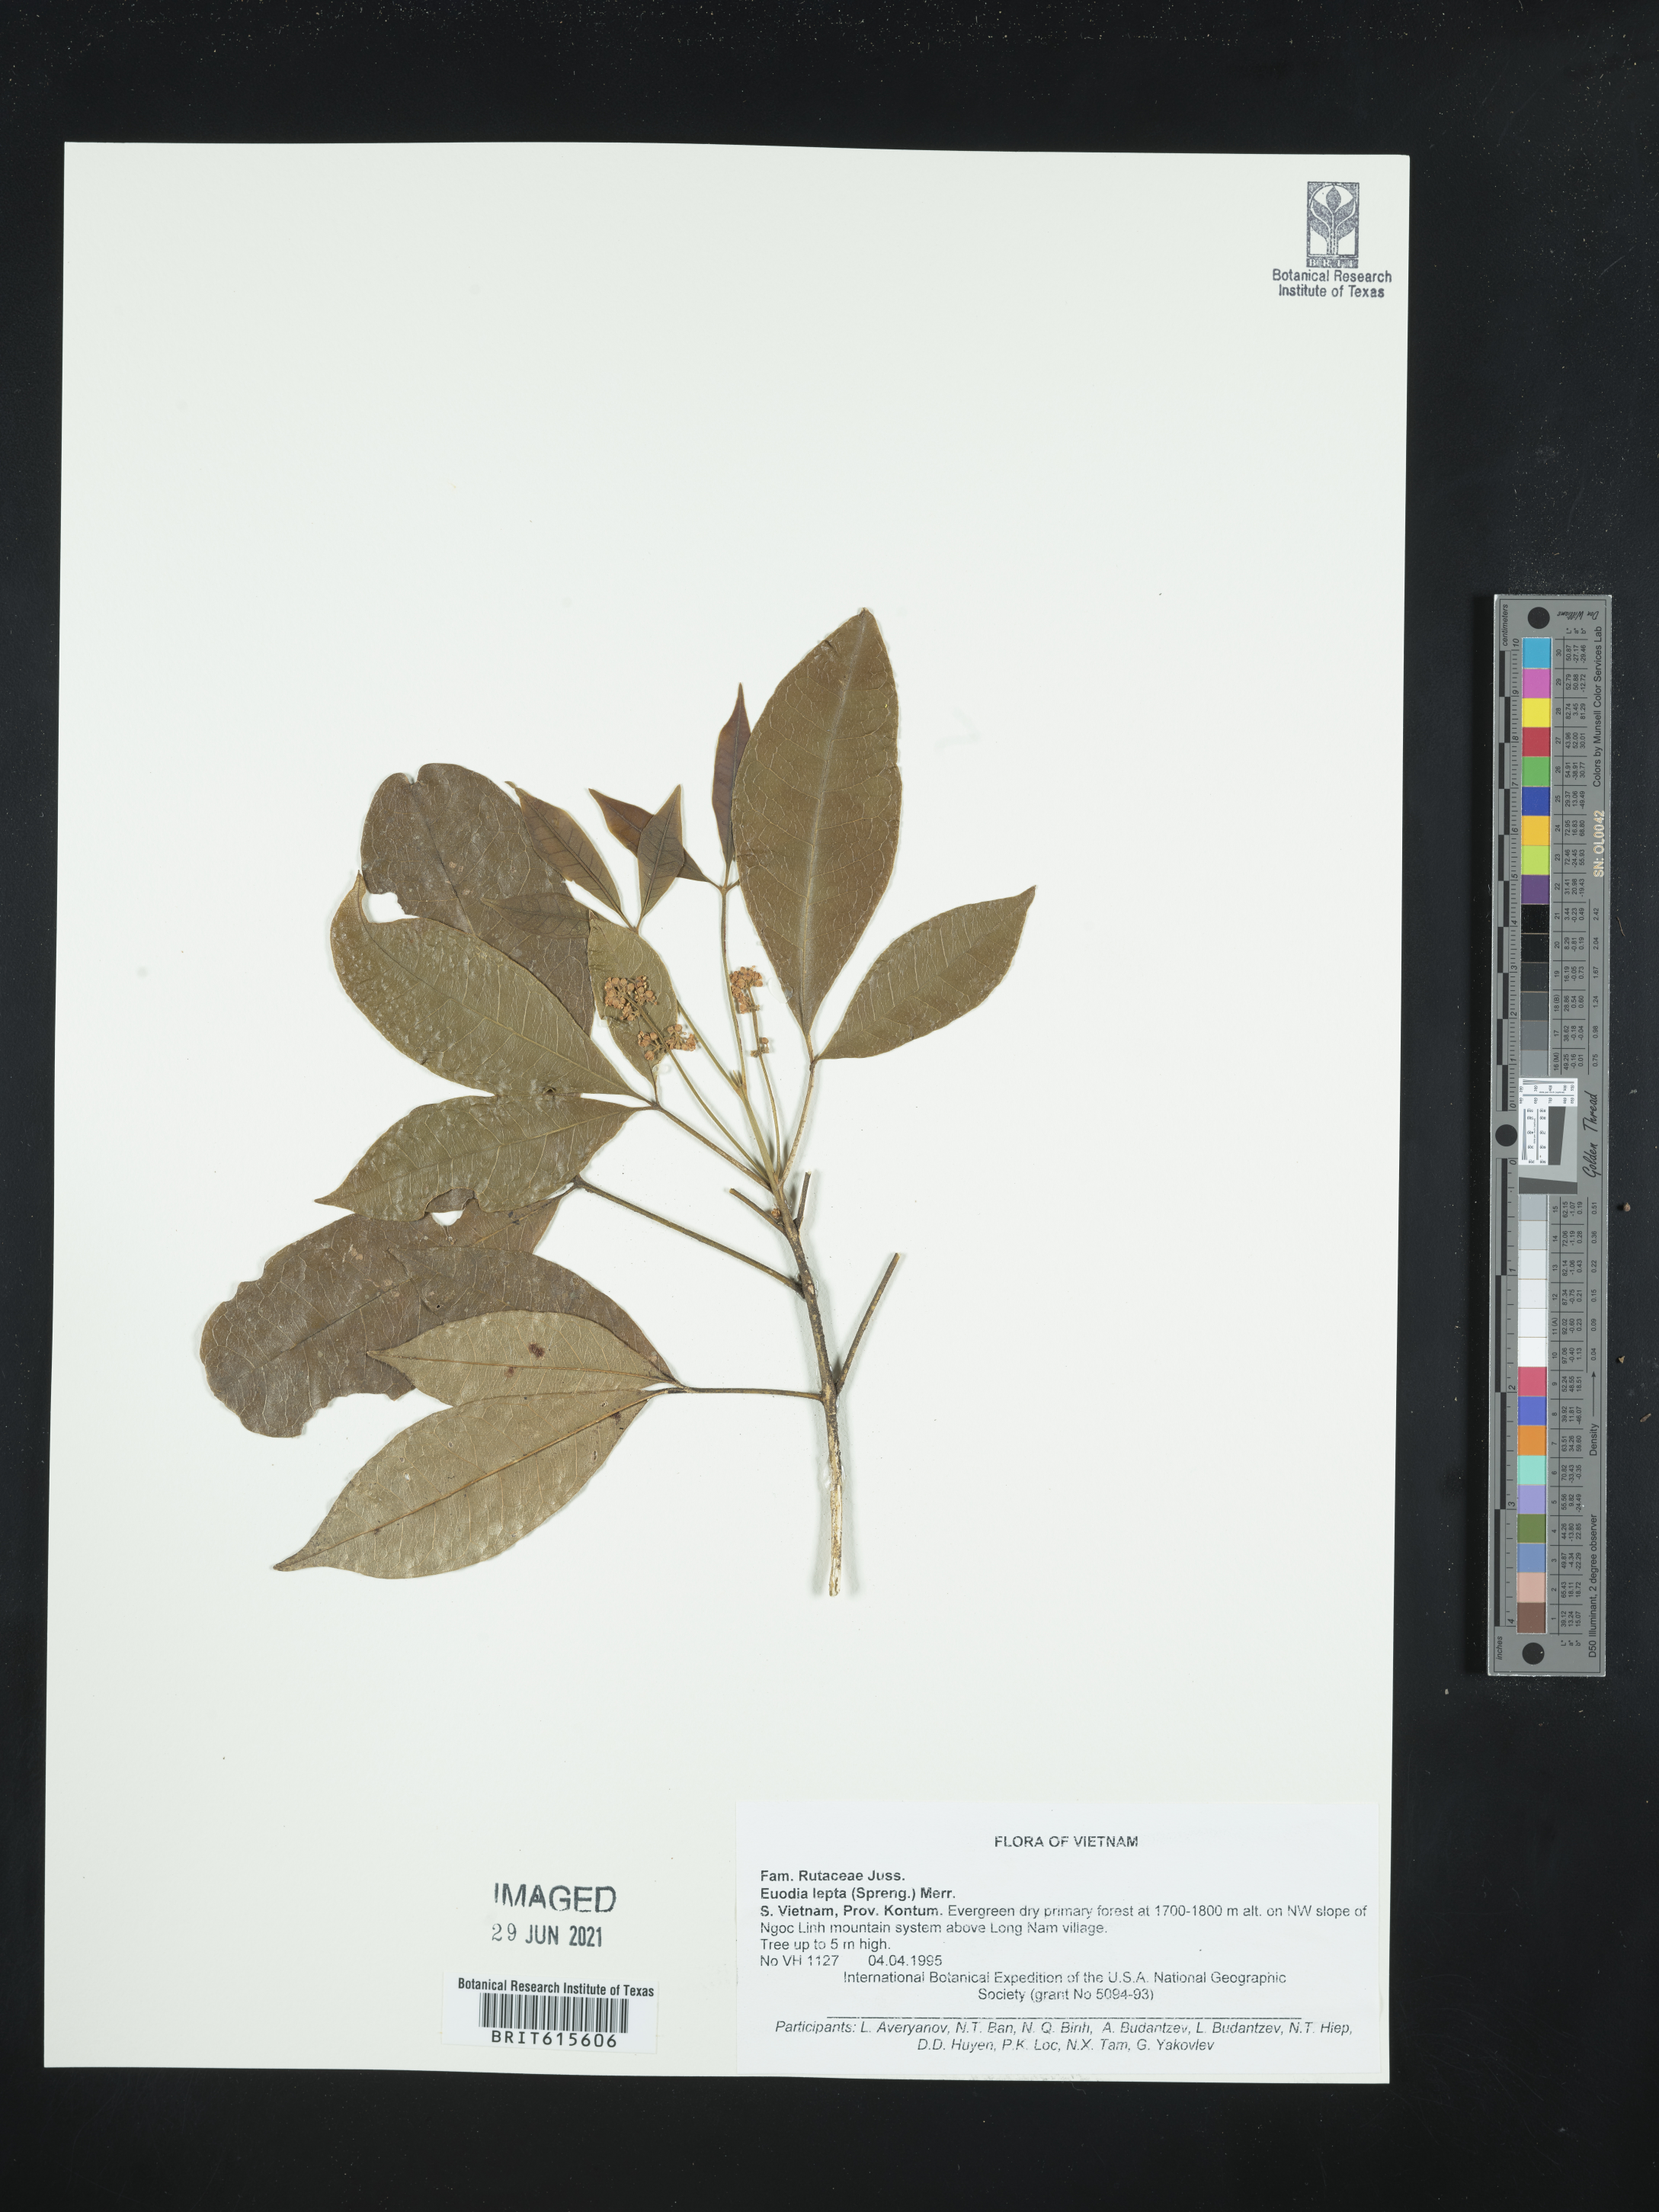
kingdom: Plantae
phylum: Tracheophyta
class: Magnoliopsida
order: Sapindales
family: Rutaceae
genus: Melicope
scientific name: Melicope pteleifolia
